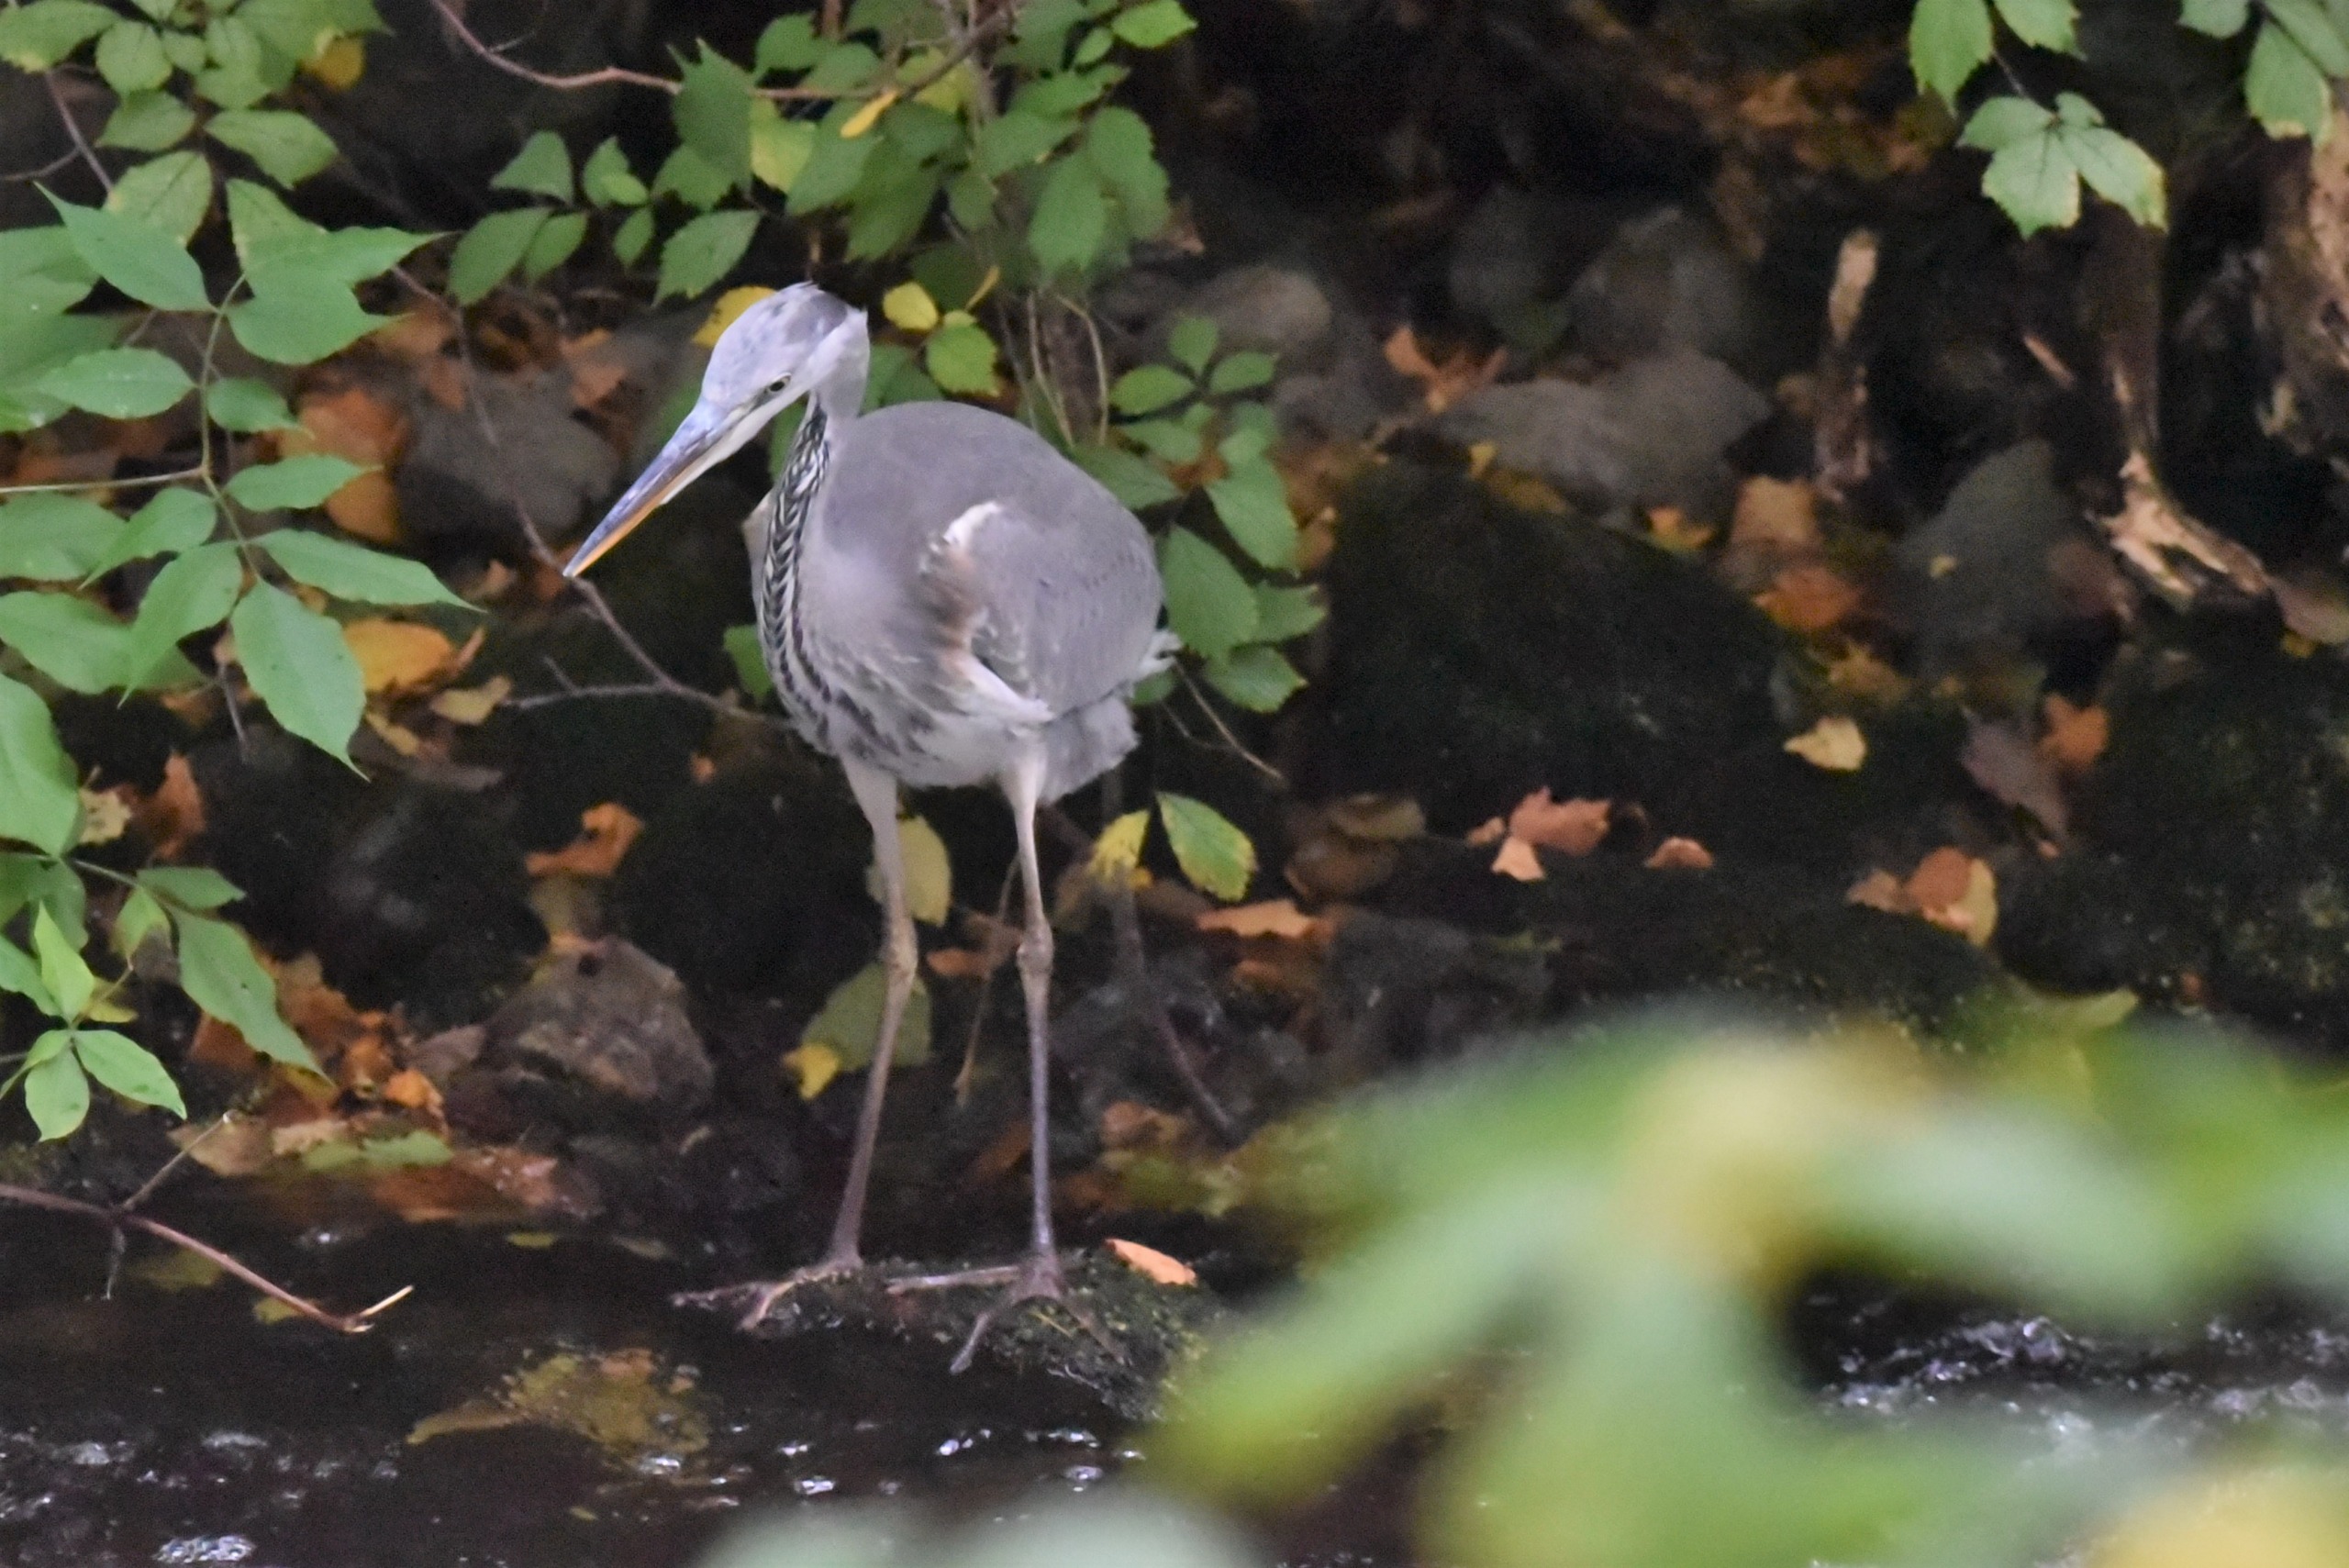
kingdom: Animalia
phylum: Chordata
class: Aves
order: Pelecaniformes
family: Ardeidae
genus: Ardea
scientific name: Ardea cinerea
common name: Fiskehejre
